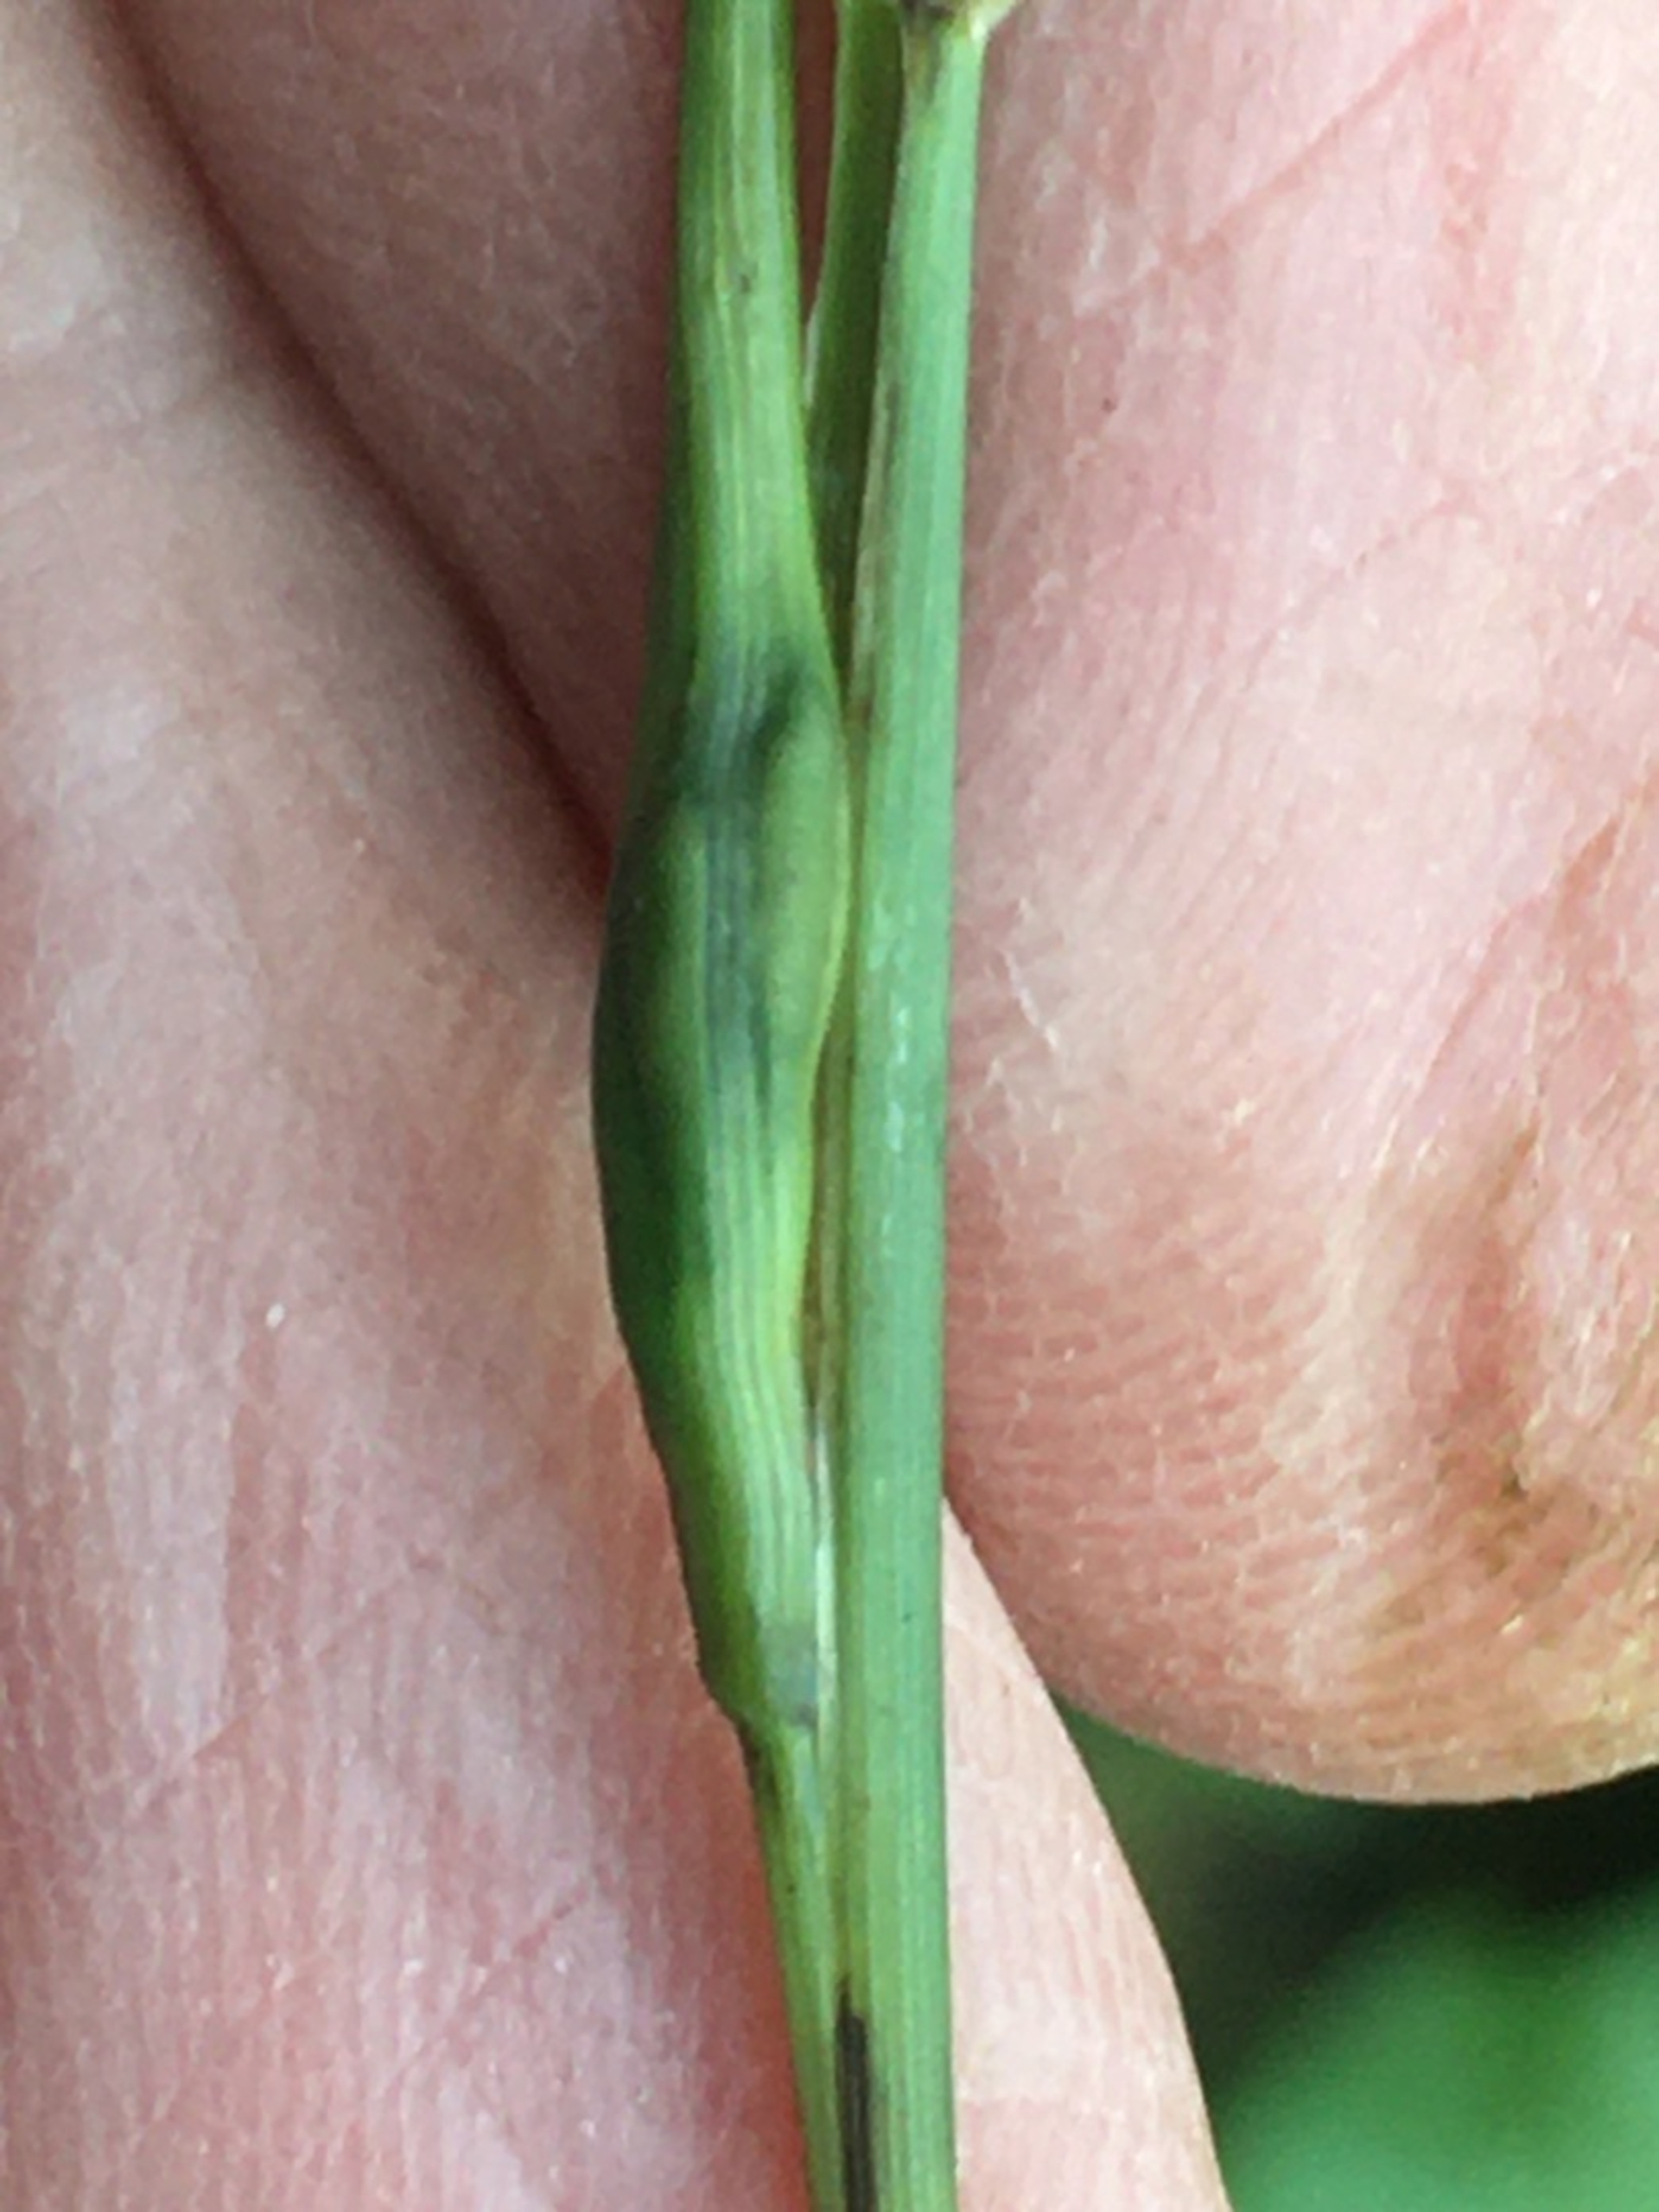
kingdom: Animalia
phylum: Arthropoda
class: Insecta
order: Hymenoptera
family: Eurytomidae
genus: Tetramesa
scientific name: Tetramesa linearis
